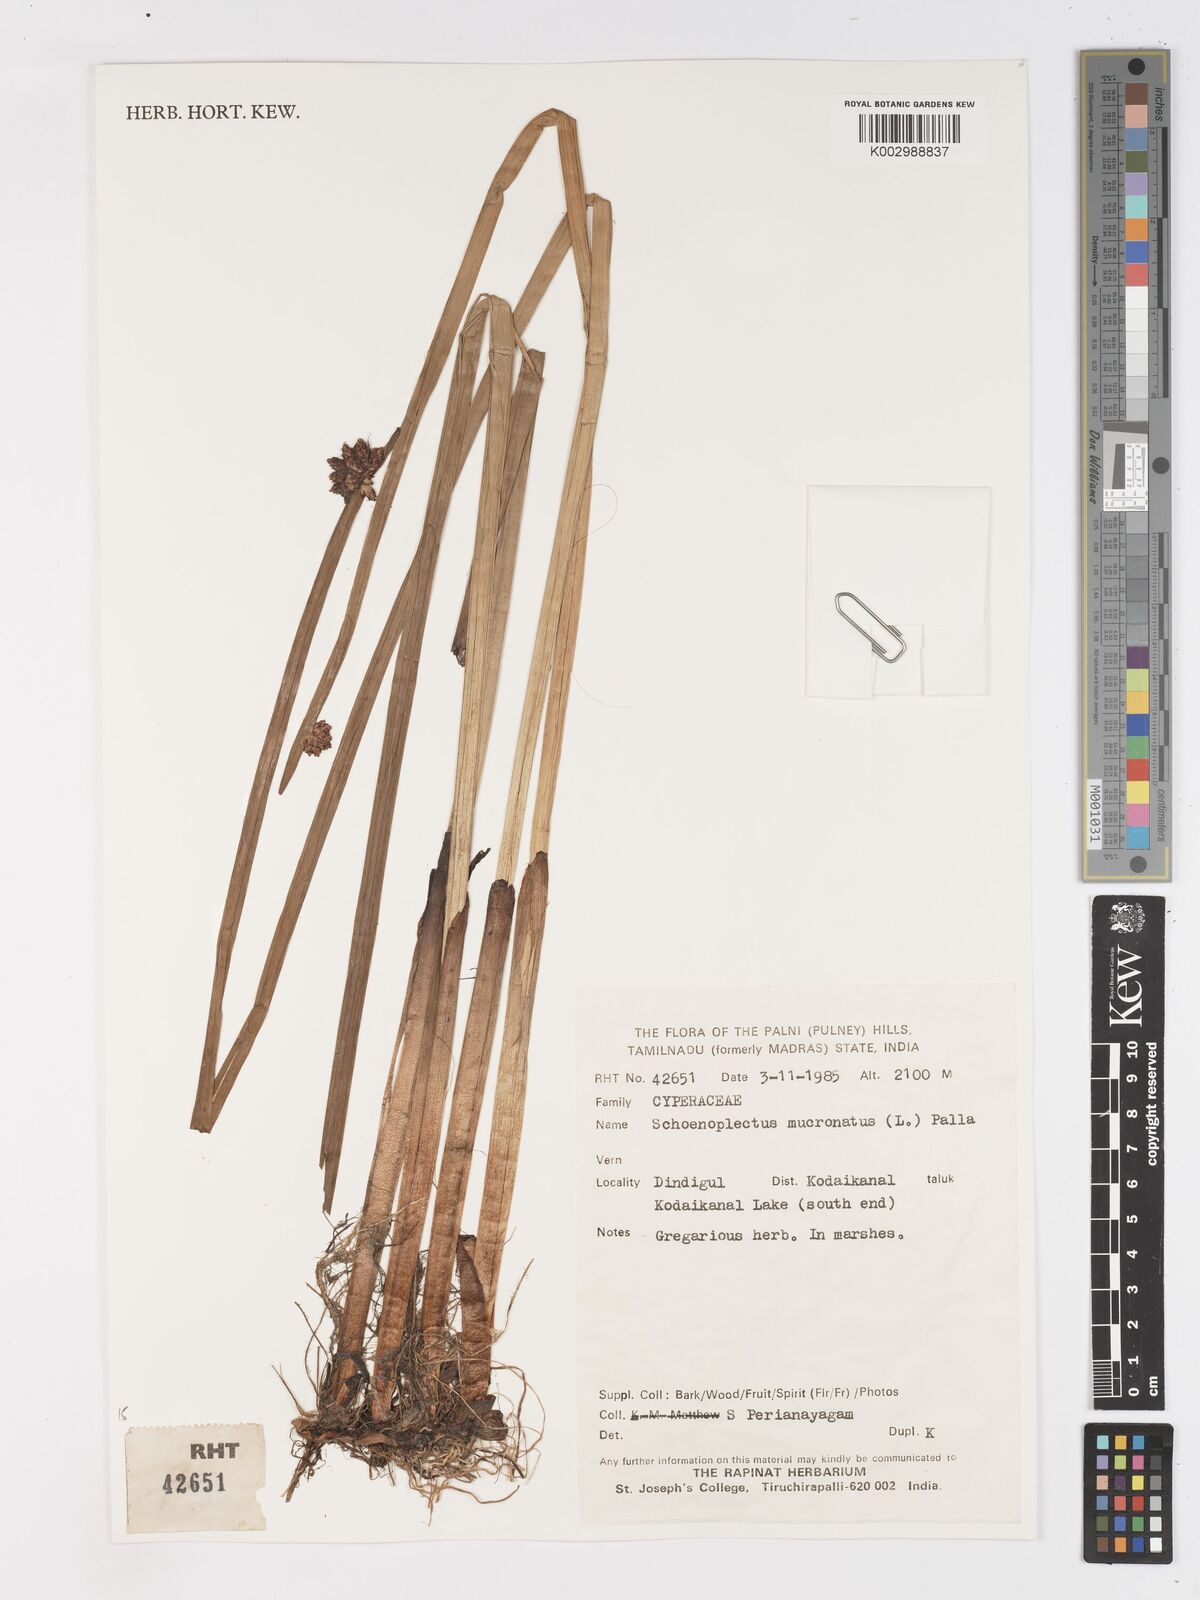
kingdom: Plantae
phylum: Tracheophyta
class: Liliopsida
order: Poales
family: Cyperaceae
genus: Schoenoplectiella
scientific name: Schoenoplectiella mucronata
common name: Bog bulrush
